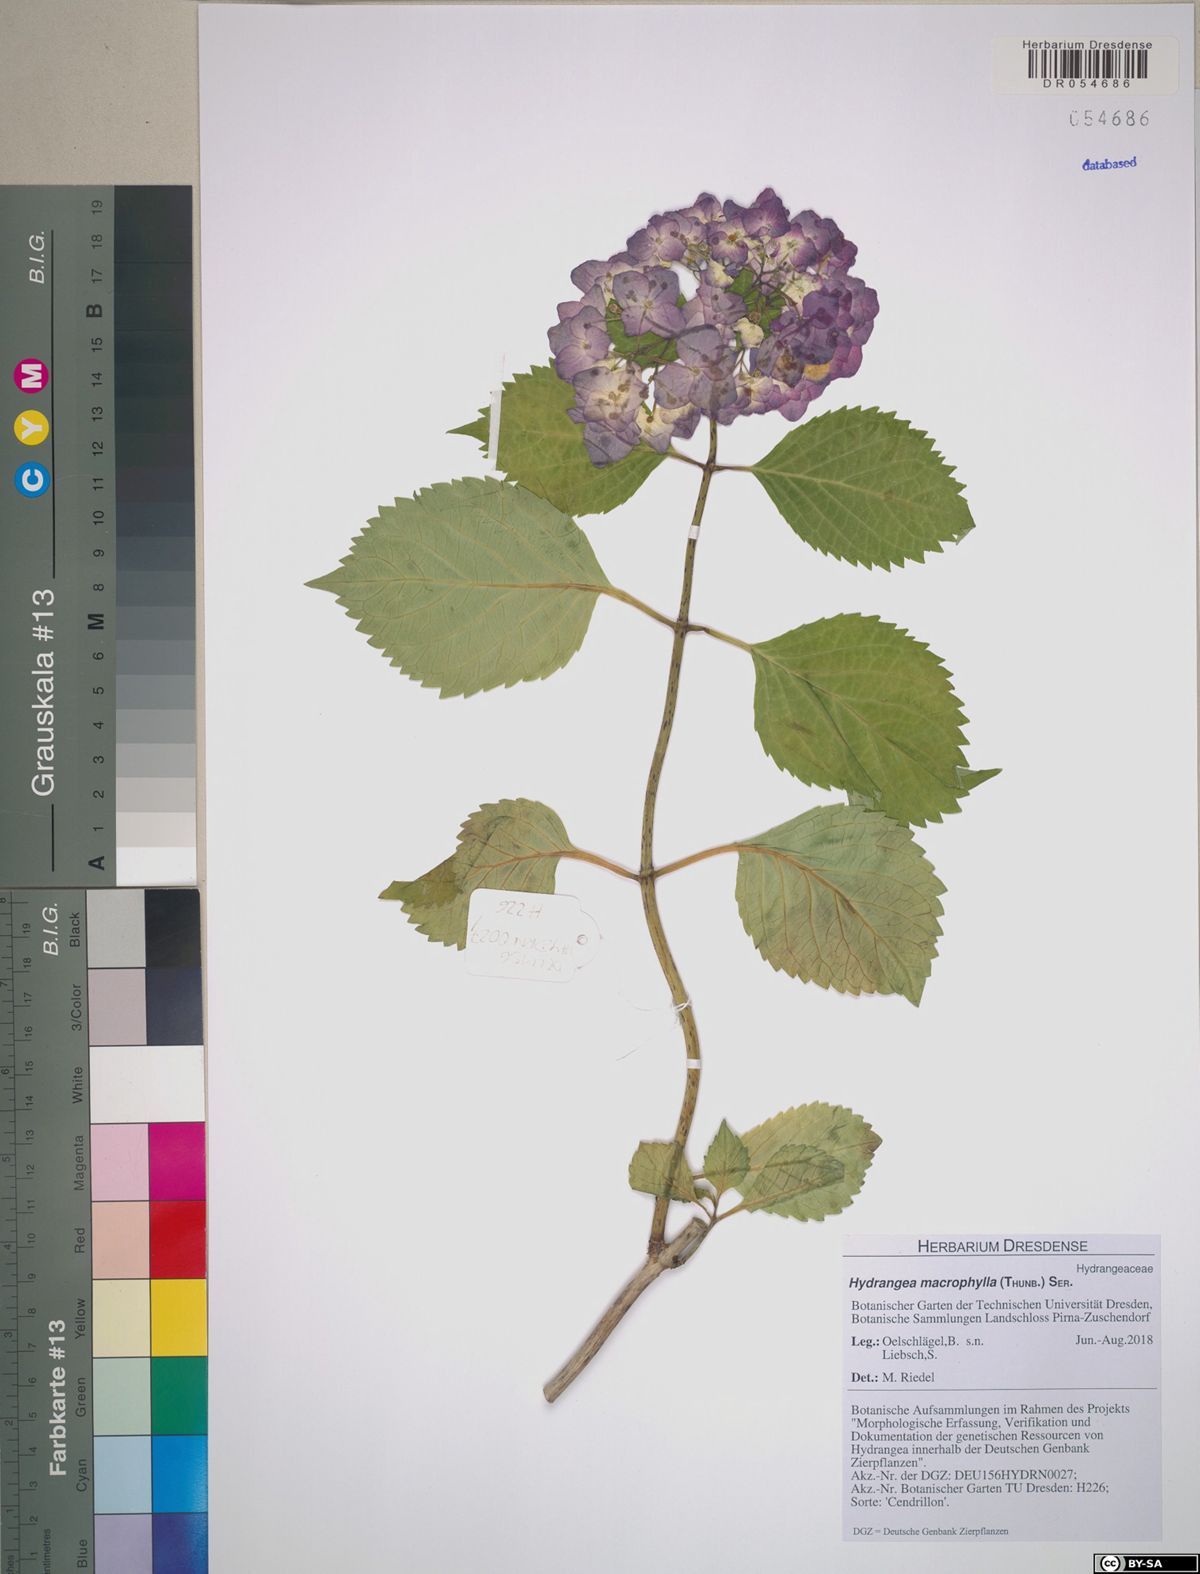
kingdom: Plantae
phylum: Tracheophyta
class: Magnoliopsida
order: Cornales
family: Hydrangeaceae
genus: Hydrangea
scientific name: Hydrangea macrophylla
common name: Hydrangea
